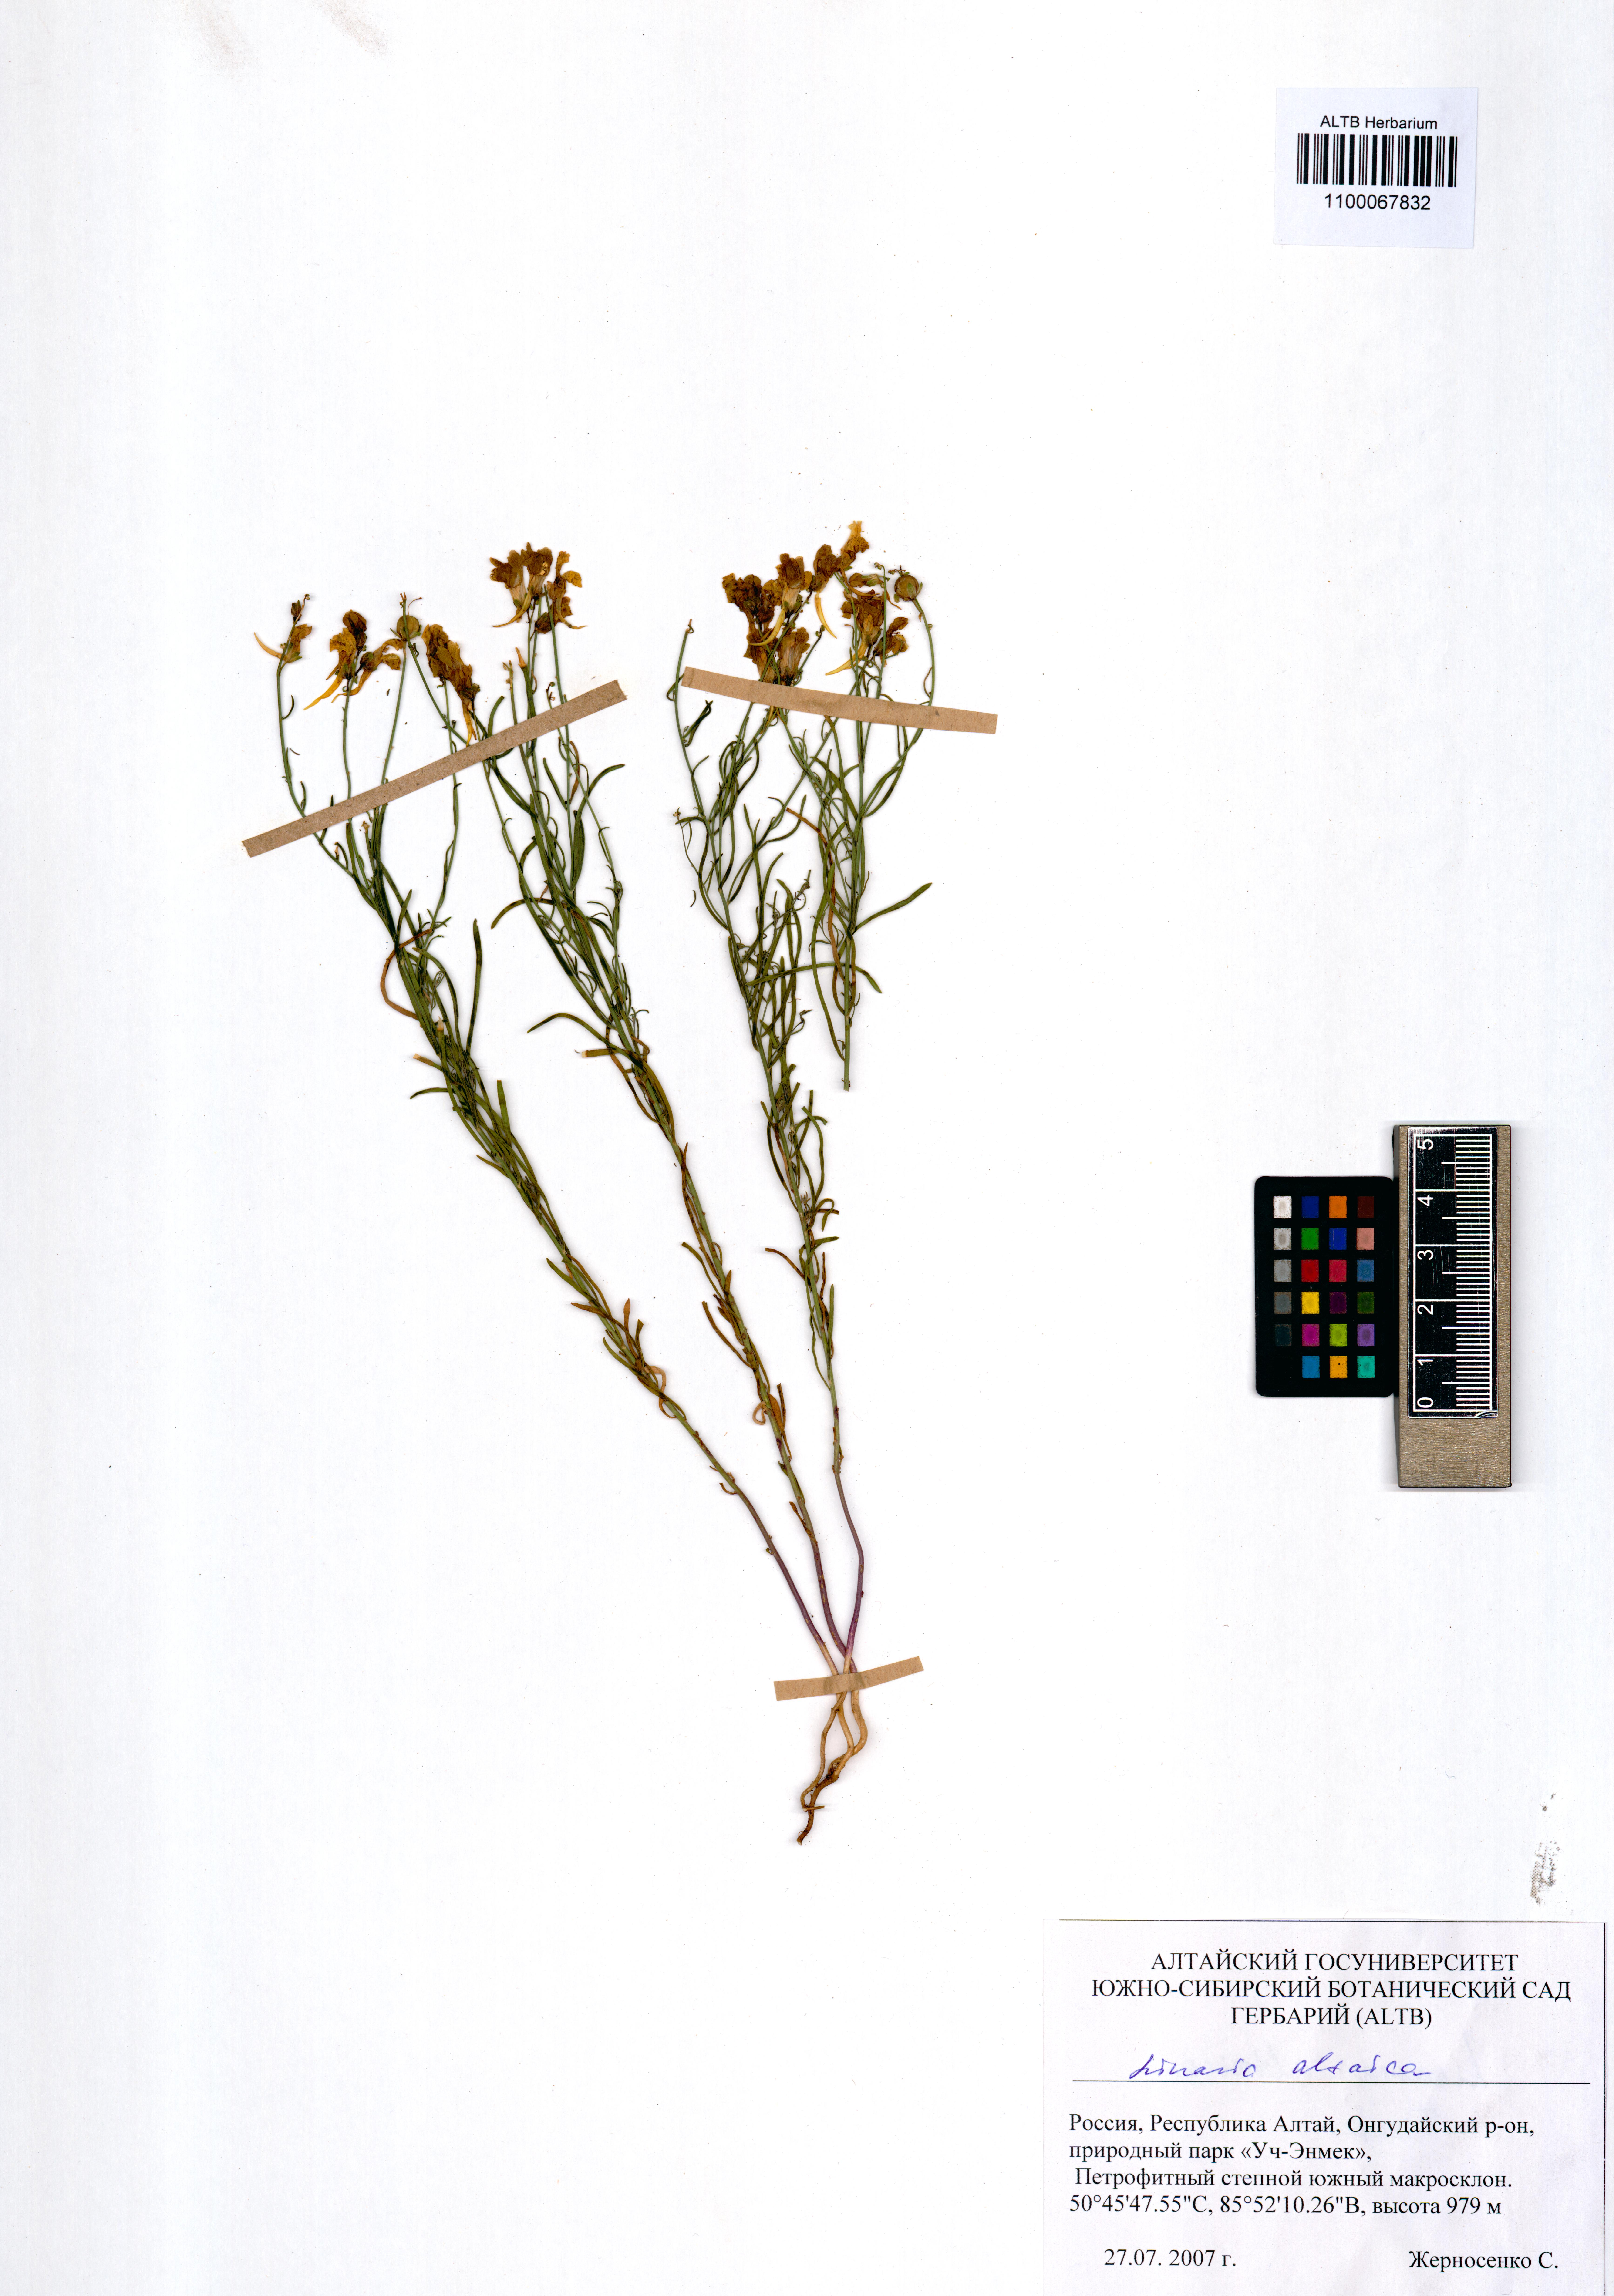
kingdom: Plantae
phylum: Tracheophyta
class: Magnoliopsida
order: Lamiales
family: Plantaginaceae
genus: Linaria
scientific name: Linaria altaica
